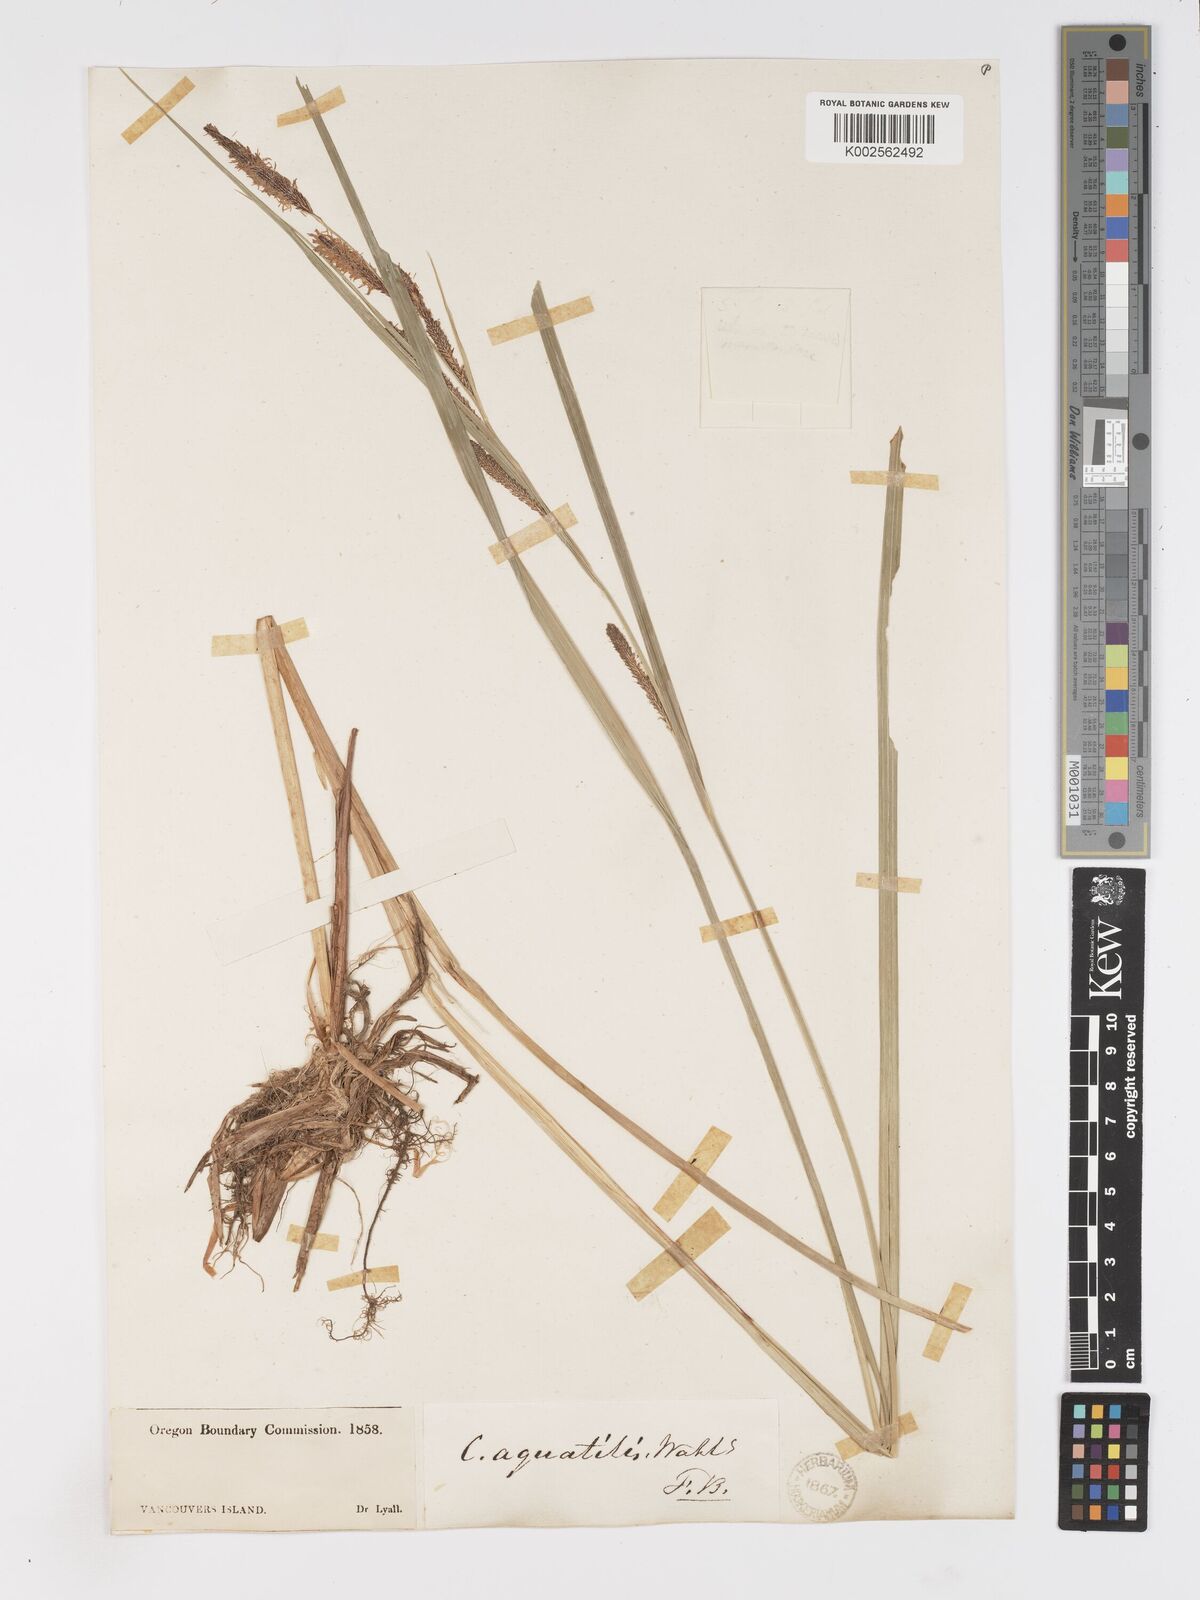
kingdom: Plantae
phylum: Tracheophyta
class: Liliopsida
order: Poales
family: Cyperaceae
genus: Carex
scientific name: Carex
